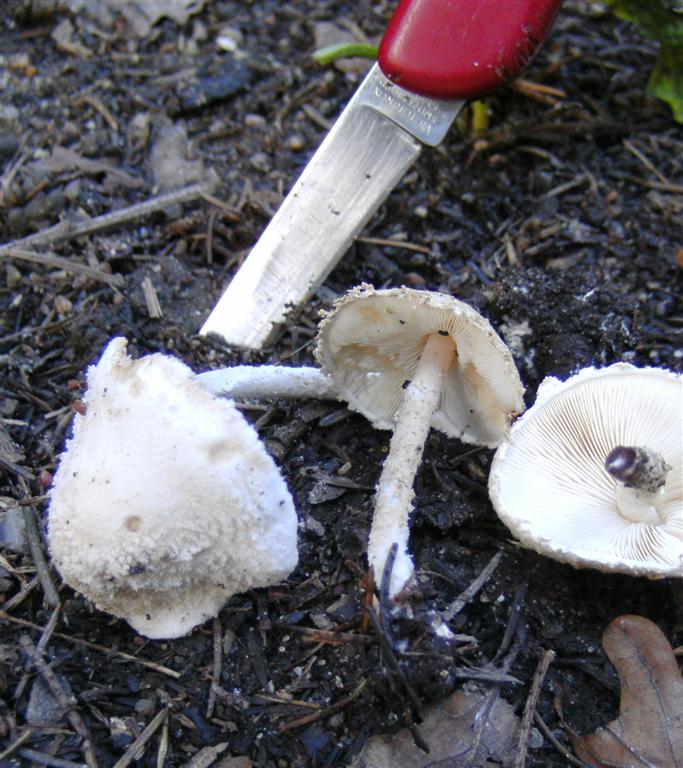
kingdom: Fungi
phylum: Basidiomycota
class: Agaricomycetes
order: Agaricales
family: Agaricaceae
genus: Cystolepiota
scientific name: Cystolepiota adulterina
